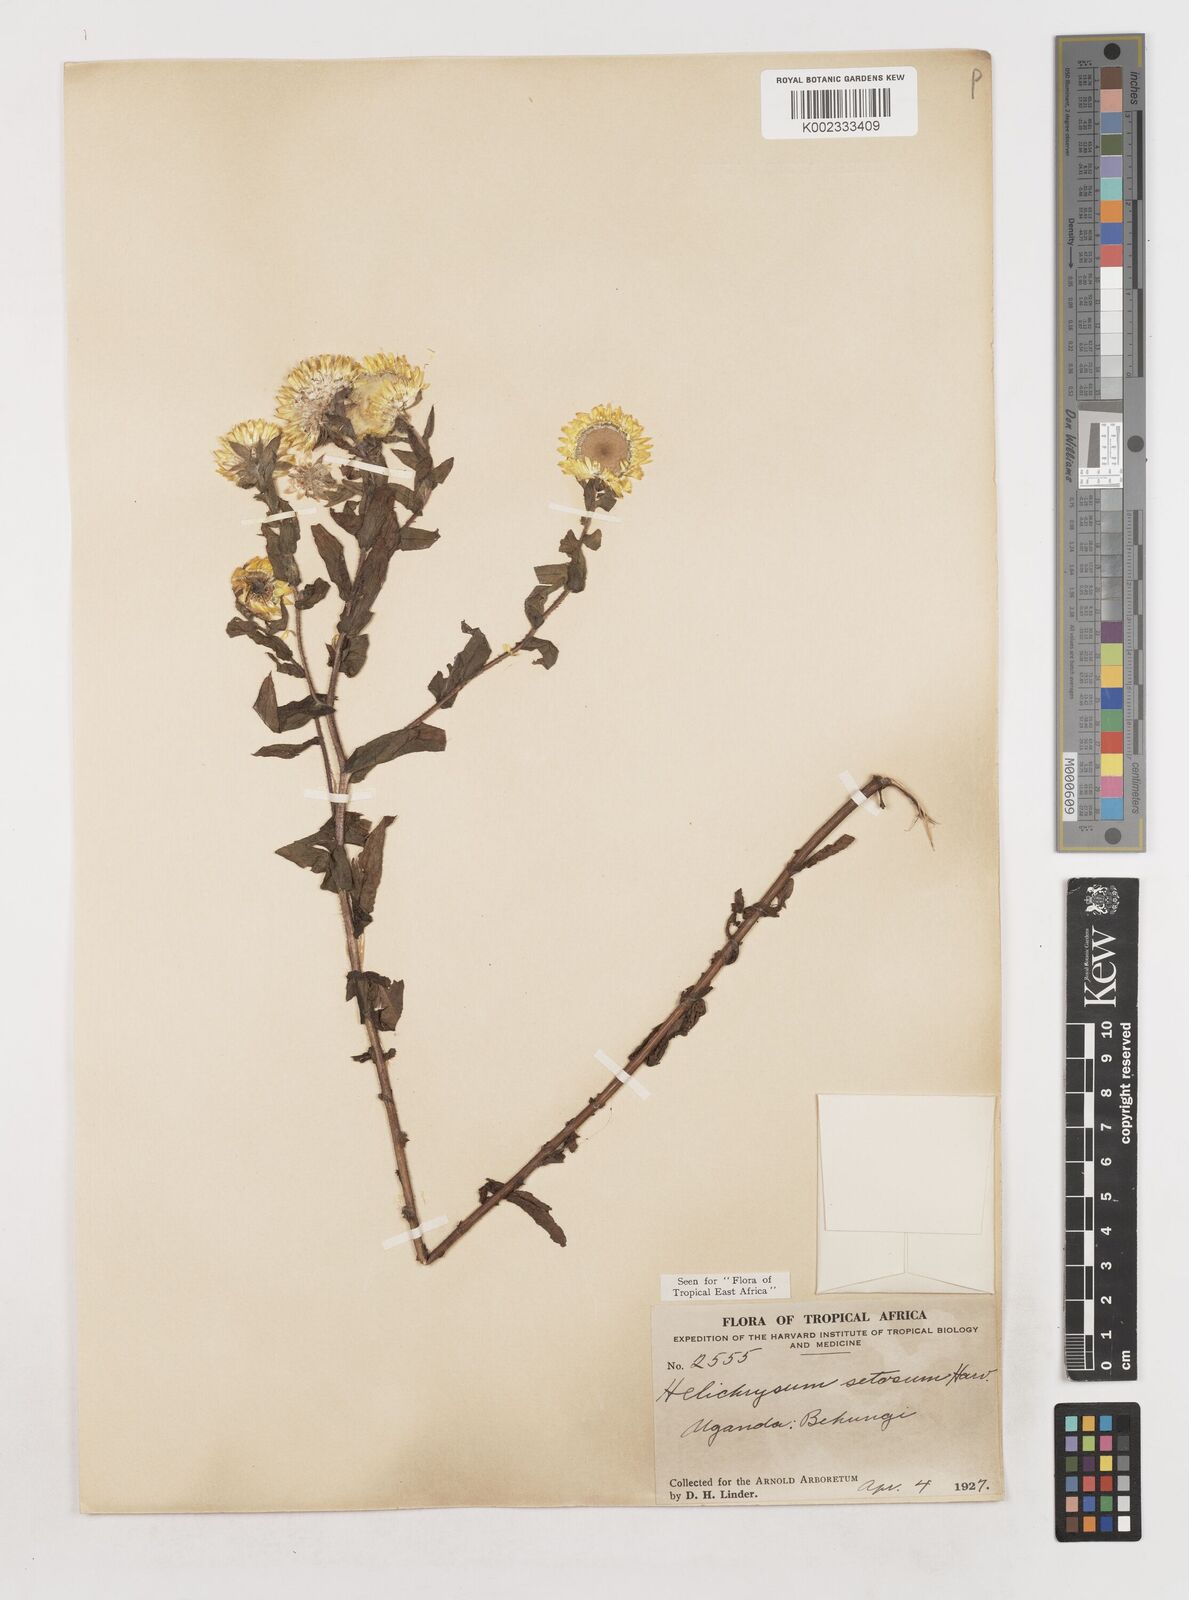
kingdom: Plantae
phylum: Tracheophyta
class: Magnoliopsida
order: Asterales
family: Asteraceae
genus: Helichrysum
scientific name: Helichrysum setosum
